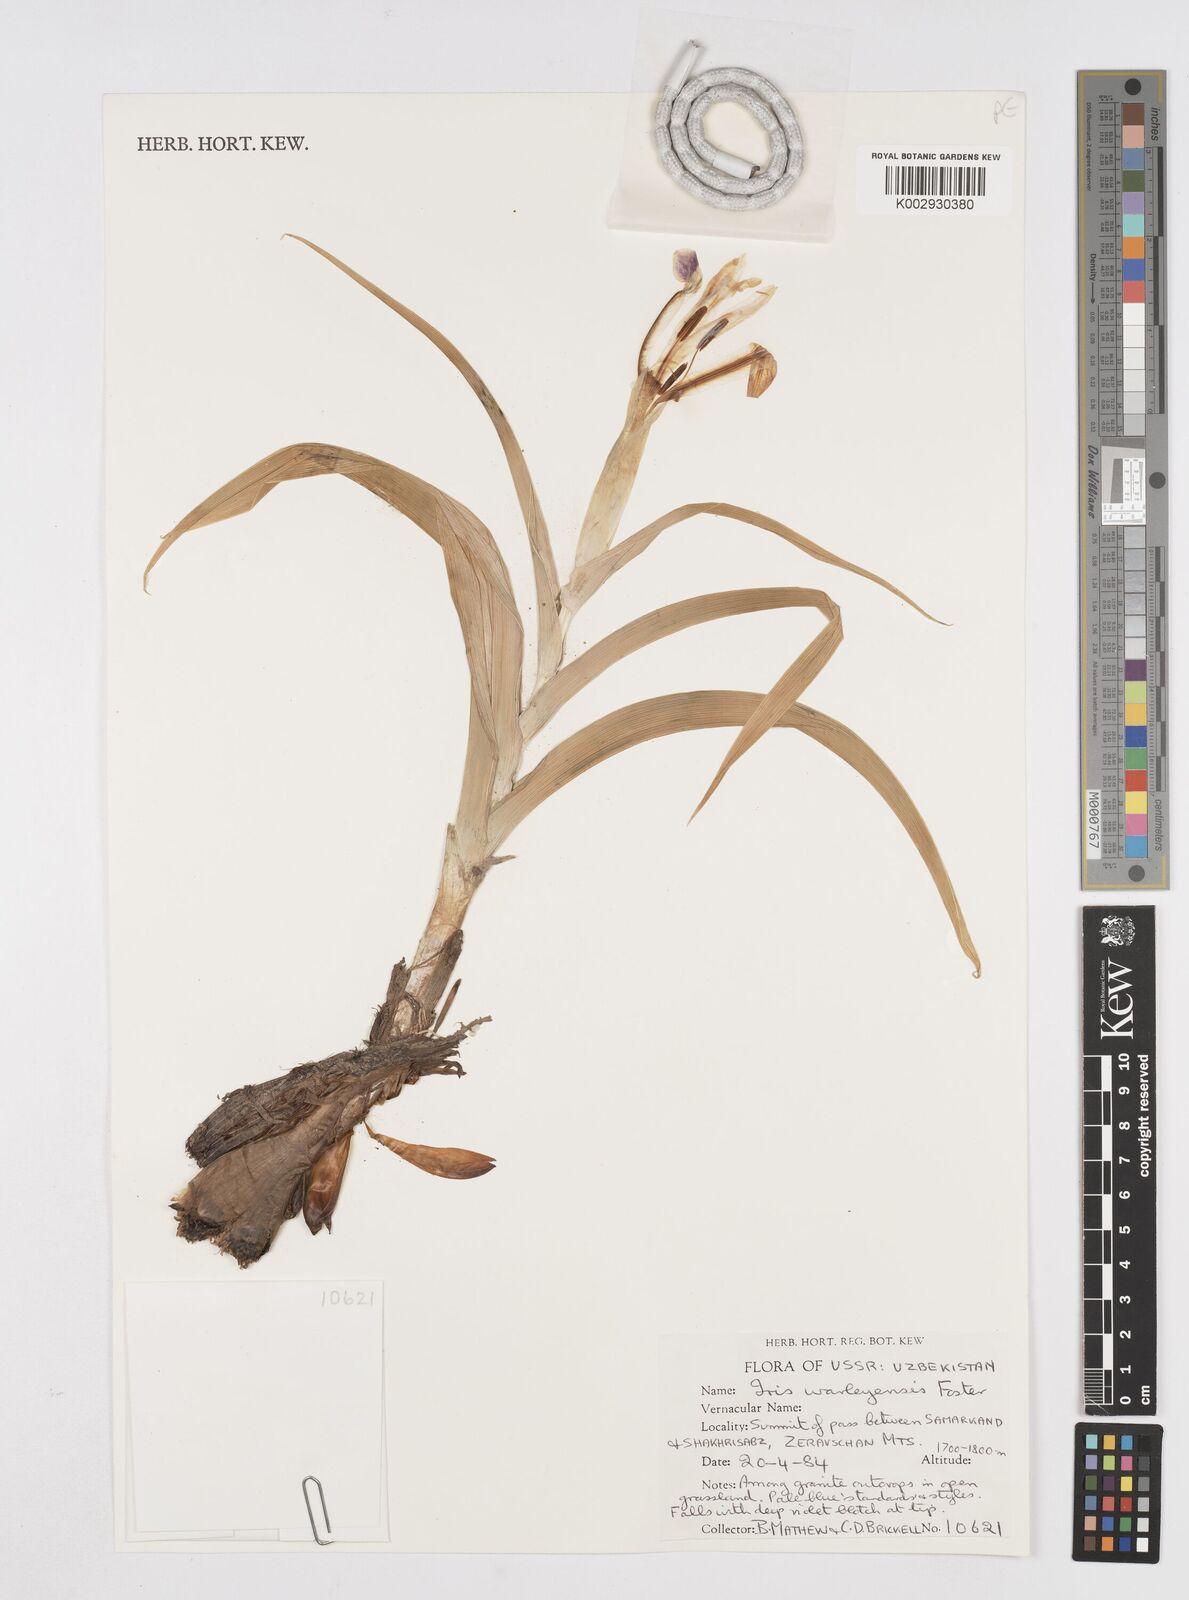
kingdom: Plantae
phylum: Tracheophyta
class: Liliopsida
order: Asparagales
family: Iridaceae
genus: Iris
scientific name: Iris warleyensis
